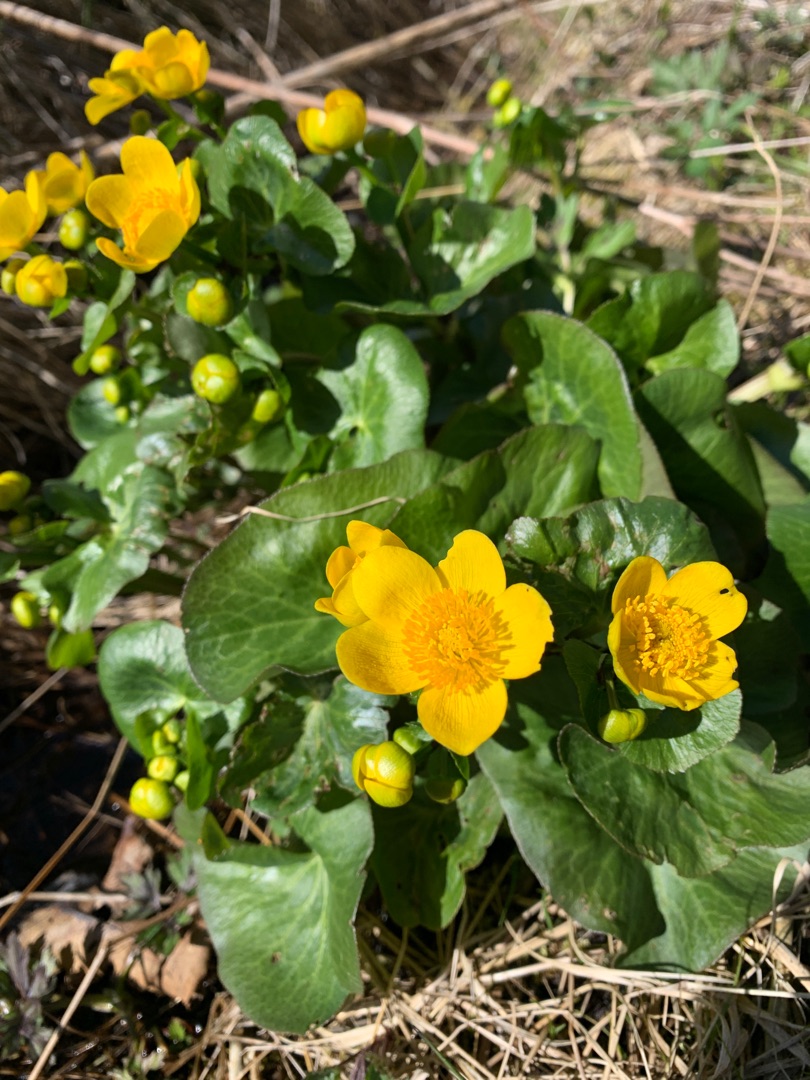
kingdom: Plantae
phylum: Tracheophyta
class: Magnoliopsida
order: Ranunculales
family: Ranunculaceae
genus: Caltha
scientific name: Caltha palustris
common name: Eng-kabbeleje
